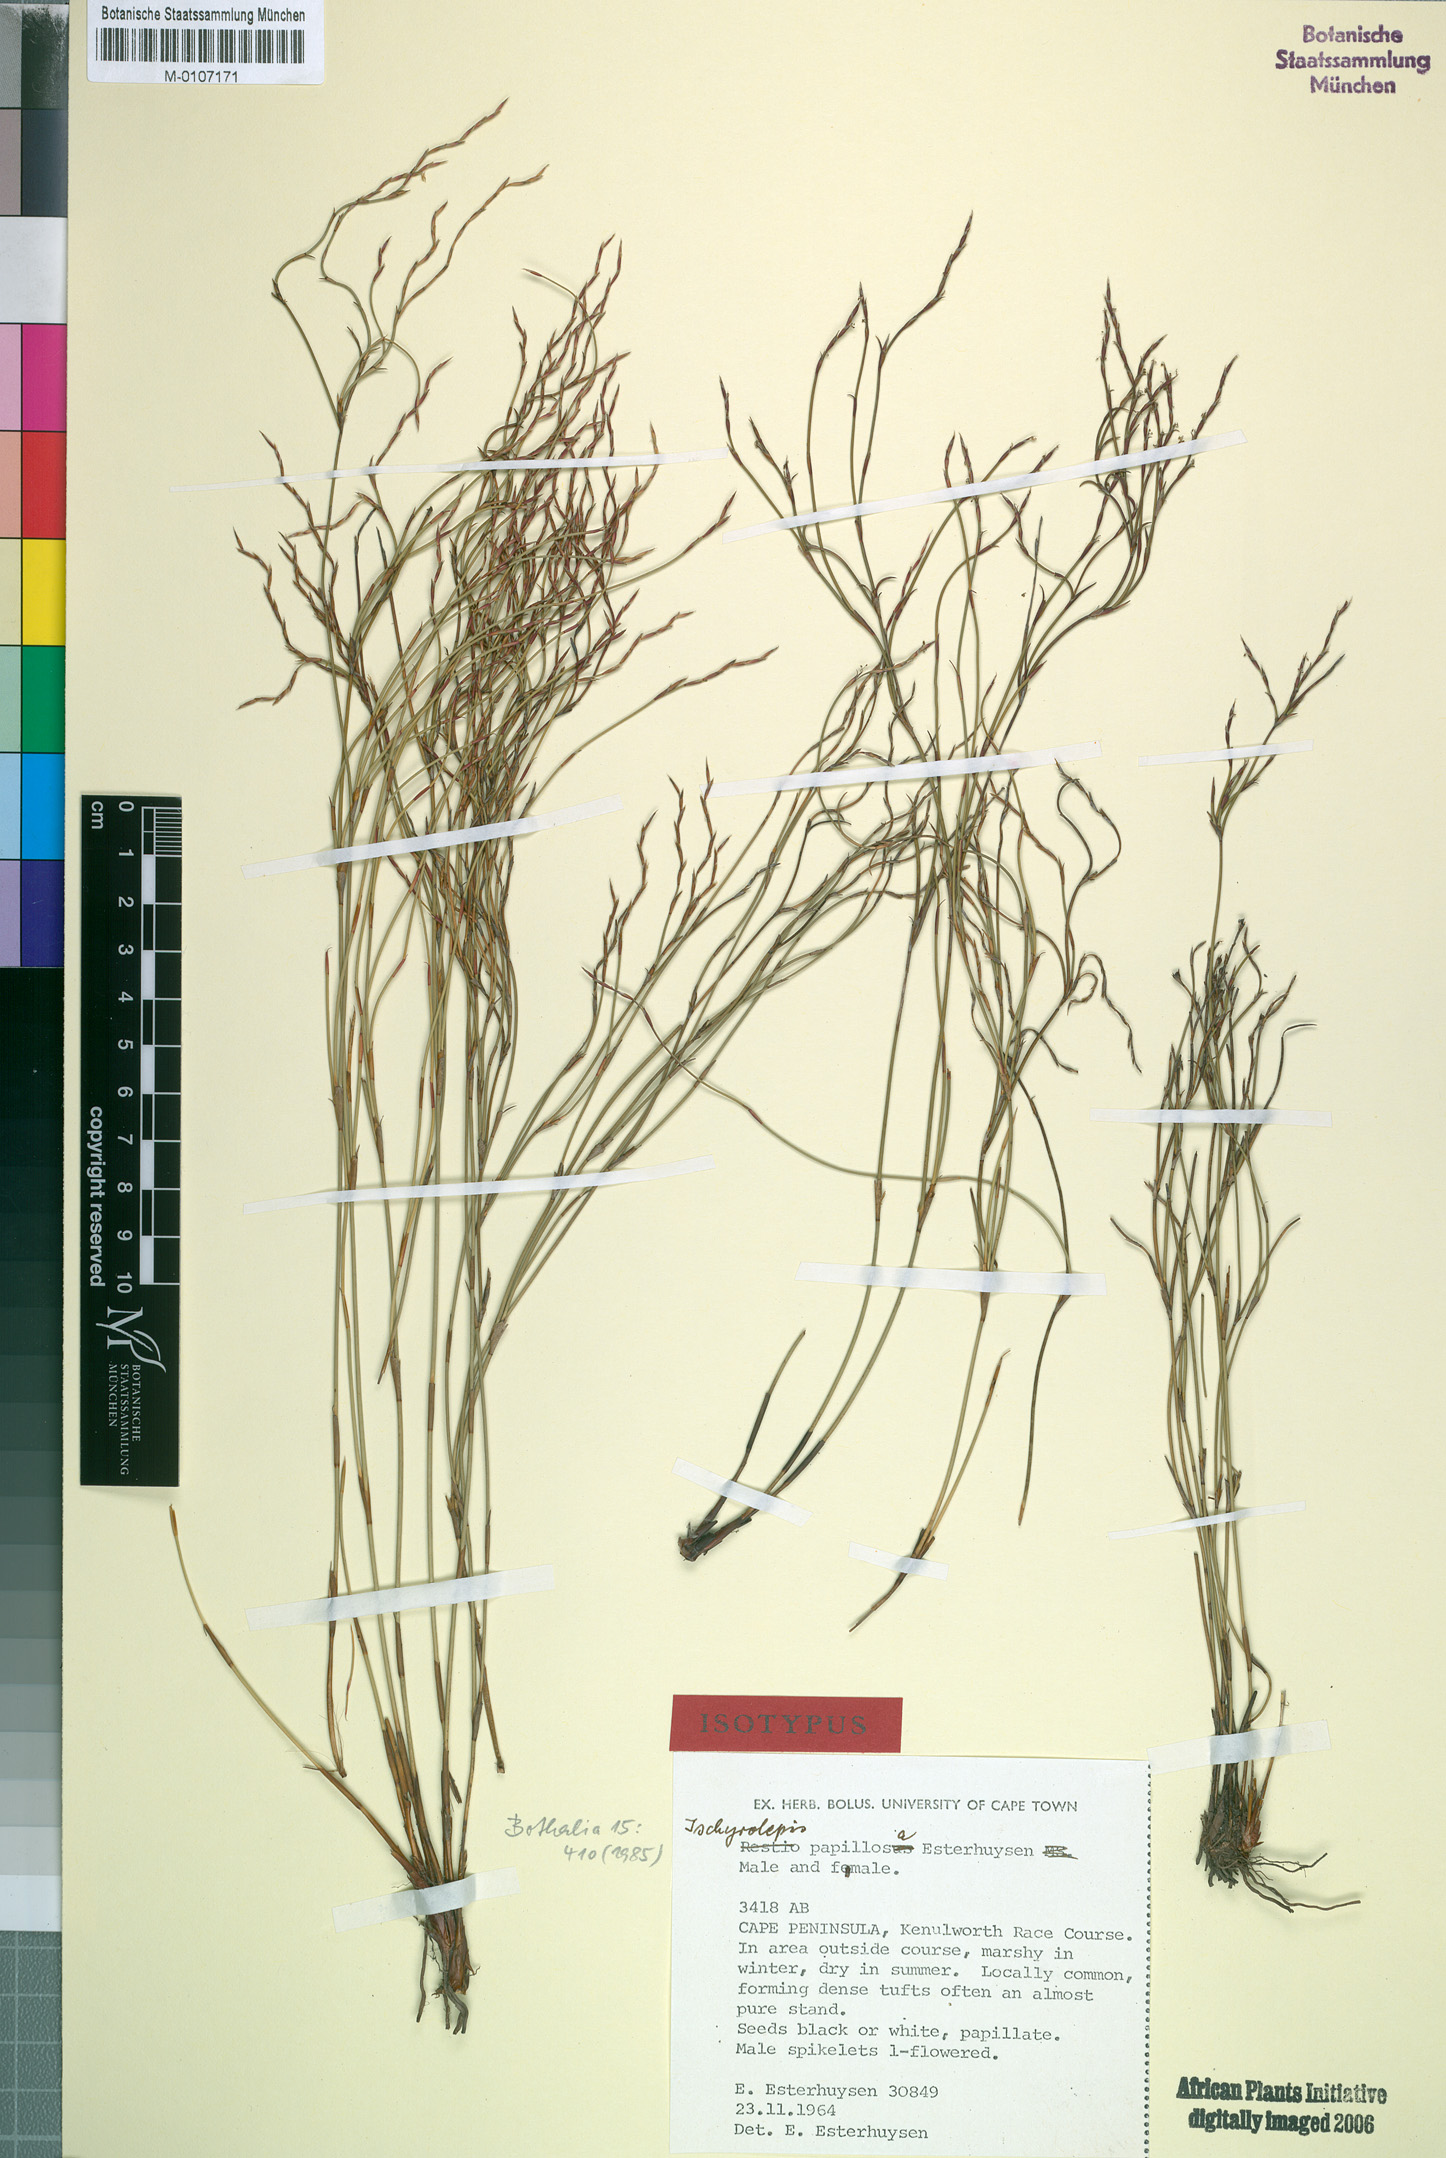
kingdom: Plantae
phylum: Tracheophyta
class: Liliopsida
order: Poales
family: Restionaceae
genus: Restio
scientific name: Restio papillosus
